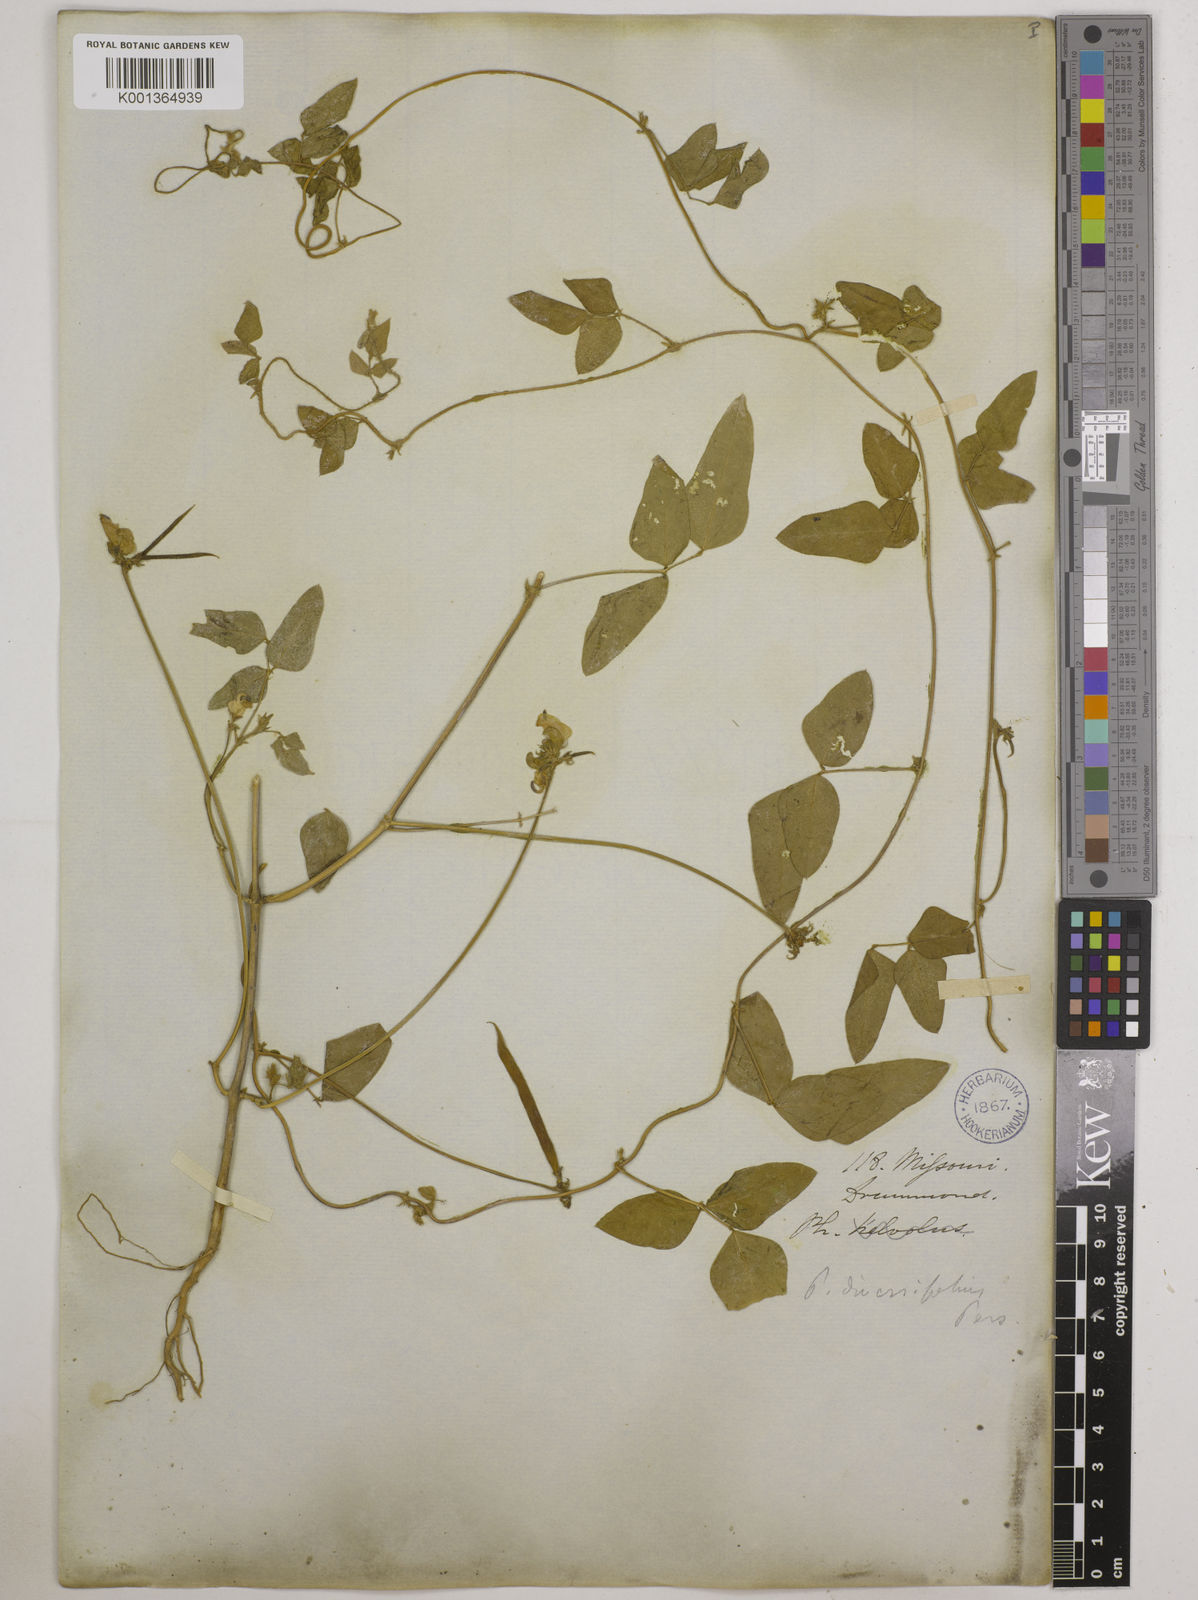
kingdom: Plantae
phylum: Tracheophyta
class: Magnoliopsida
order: Fabales
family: Fabaceae
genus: Strophostyles
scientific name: Strophostyles
